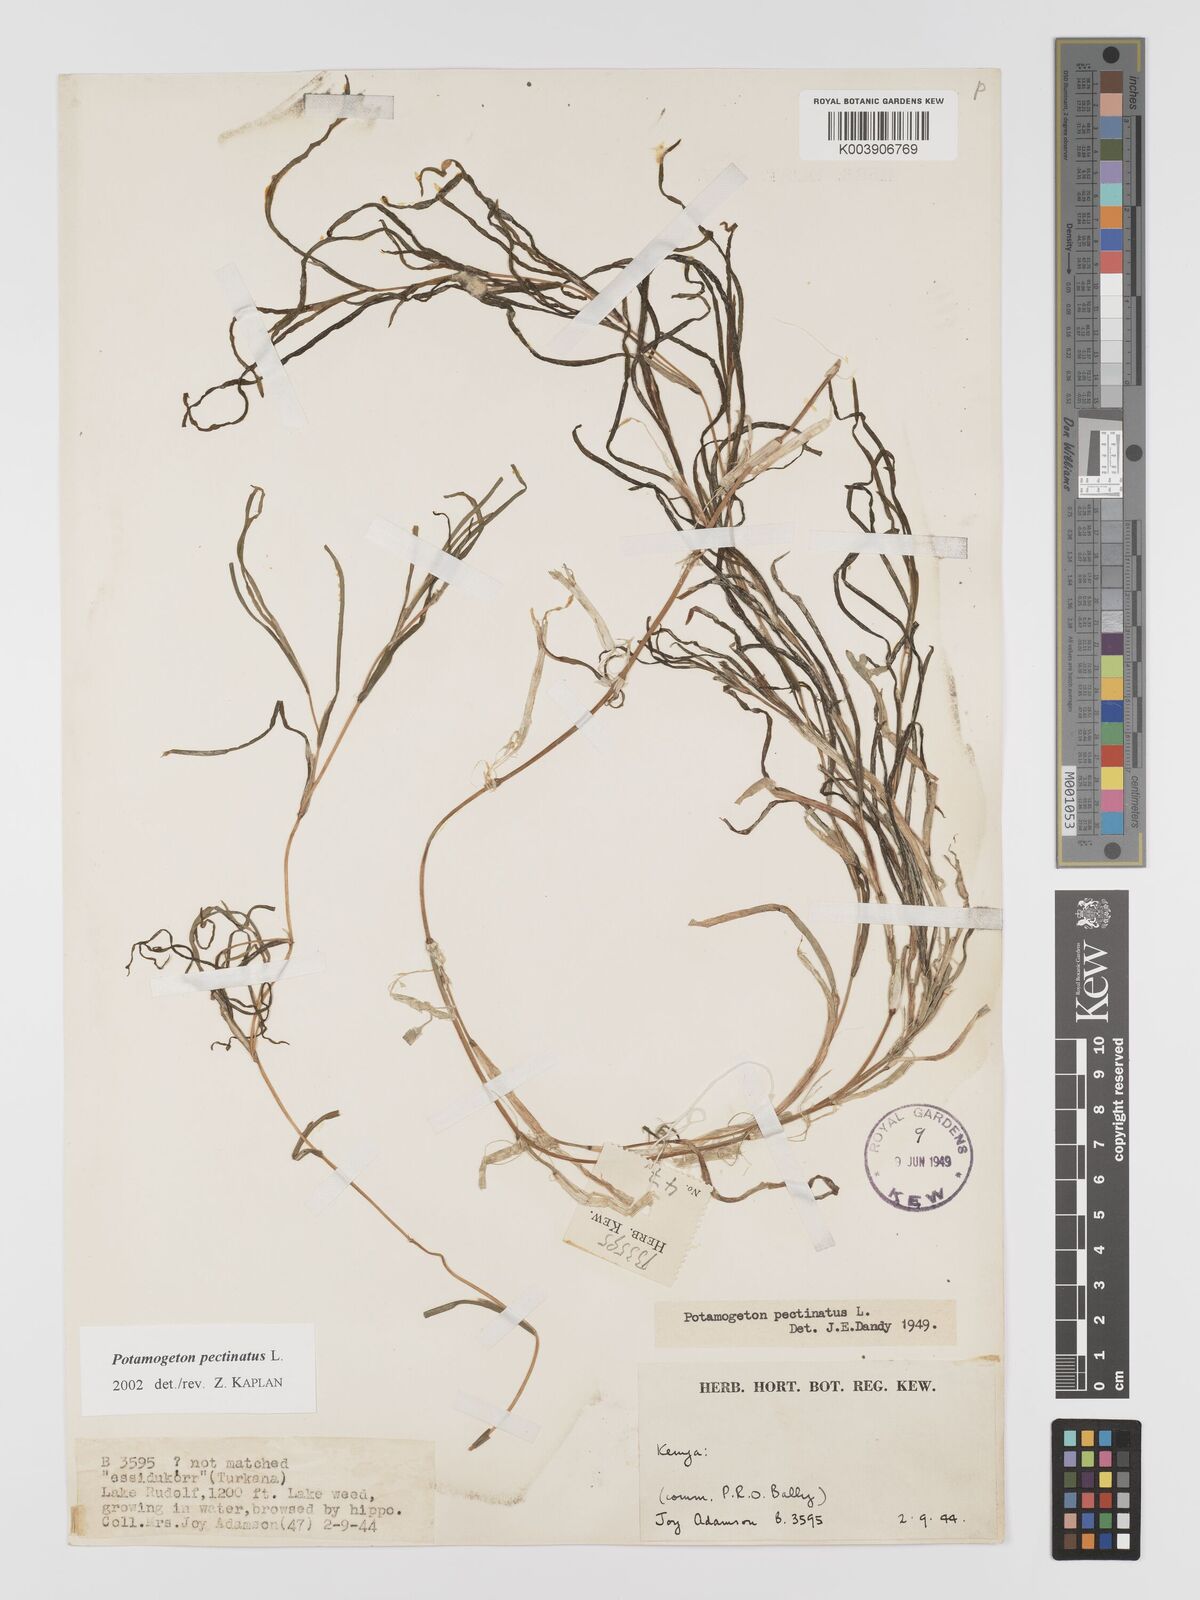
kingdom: Plantae
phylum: Tracheophyta
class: Liliopsida
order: Alismatales
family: Potamogetonaceae
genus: Stuckenia
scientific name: Stuckenia pectinata
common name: Sago pondweed
